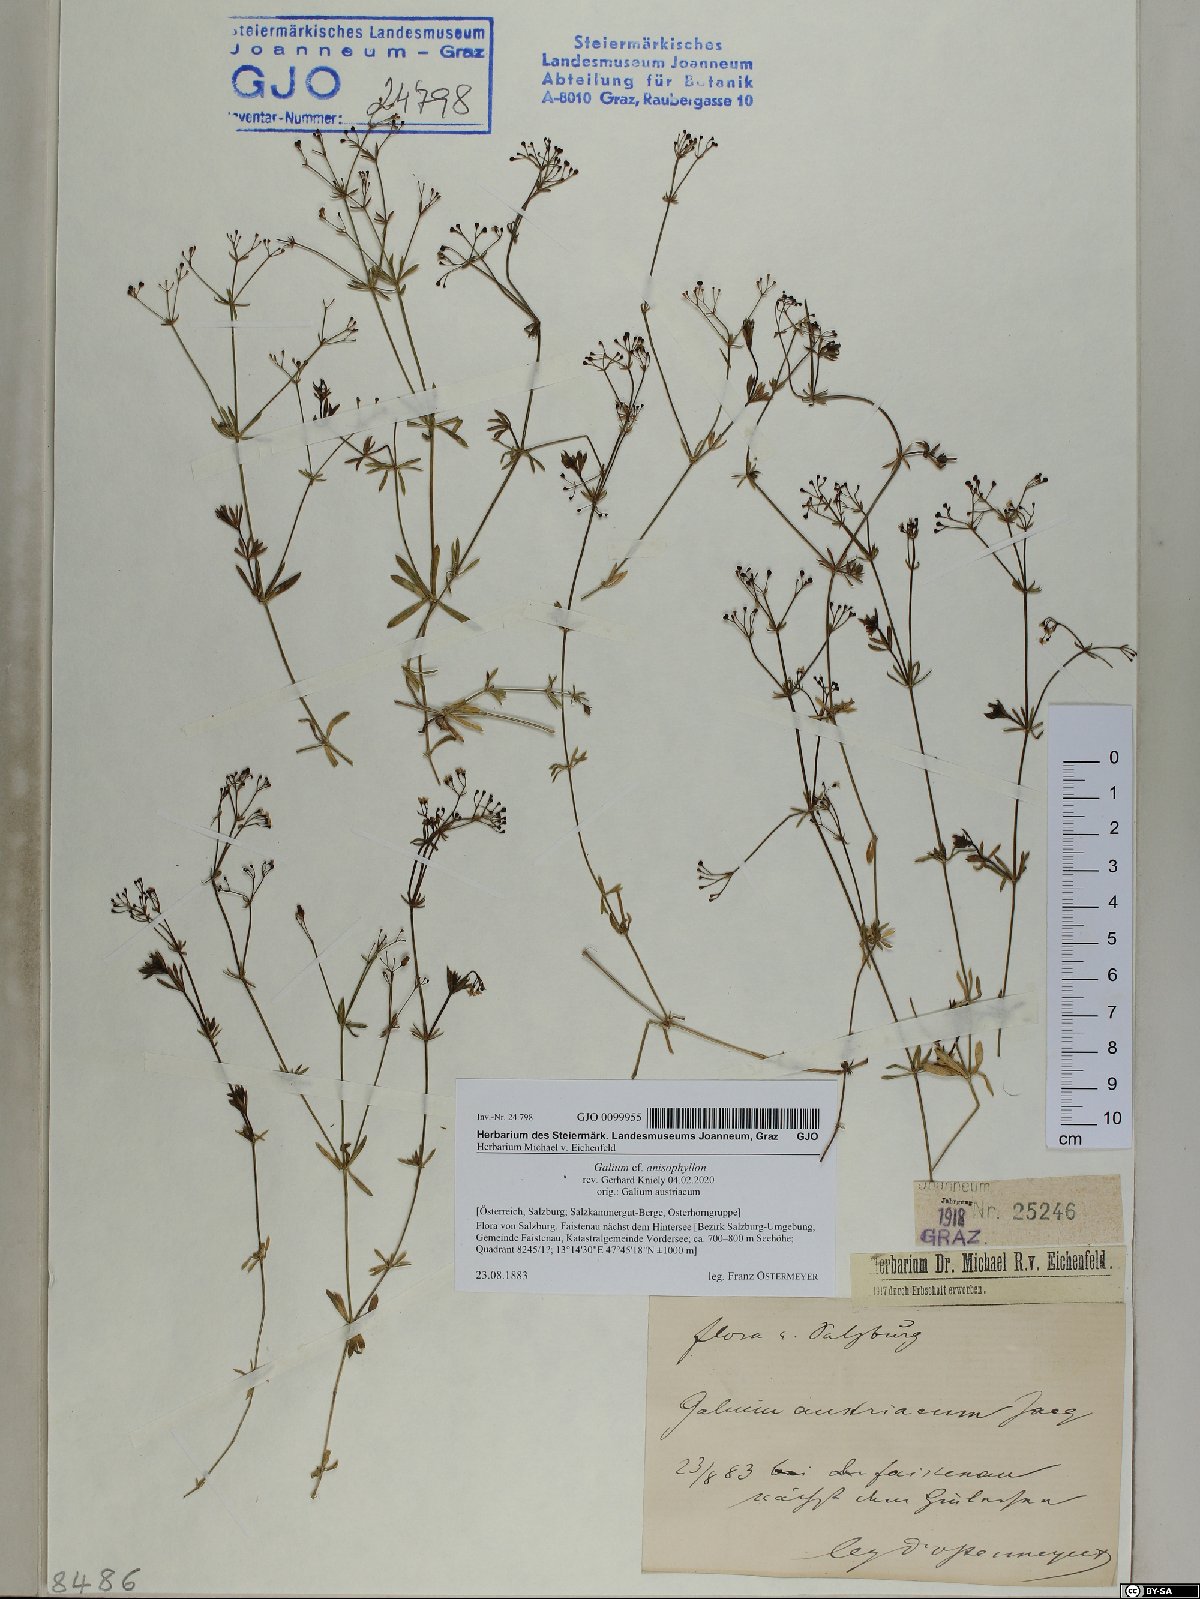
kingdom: Plantae
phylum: Tracheophyta
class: Magnoliopsida
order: Gentianales
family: Rubiaceae
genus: Galium
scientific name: Galium anisophyllon
